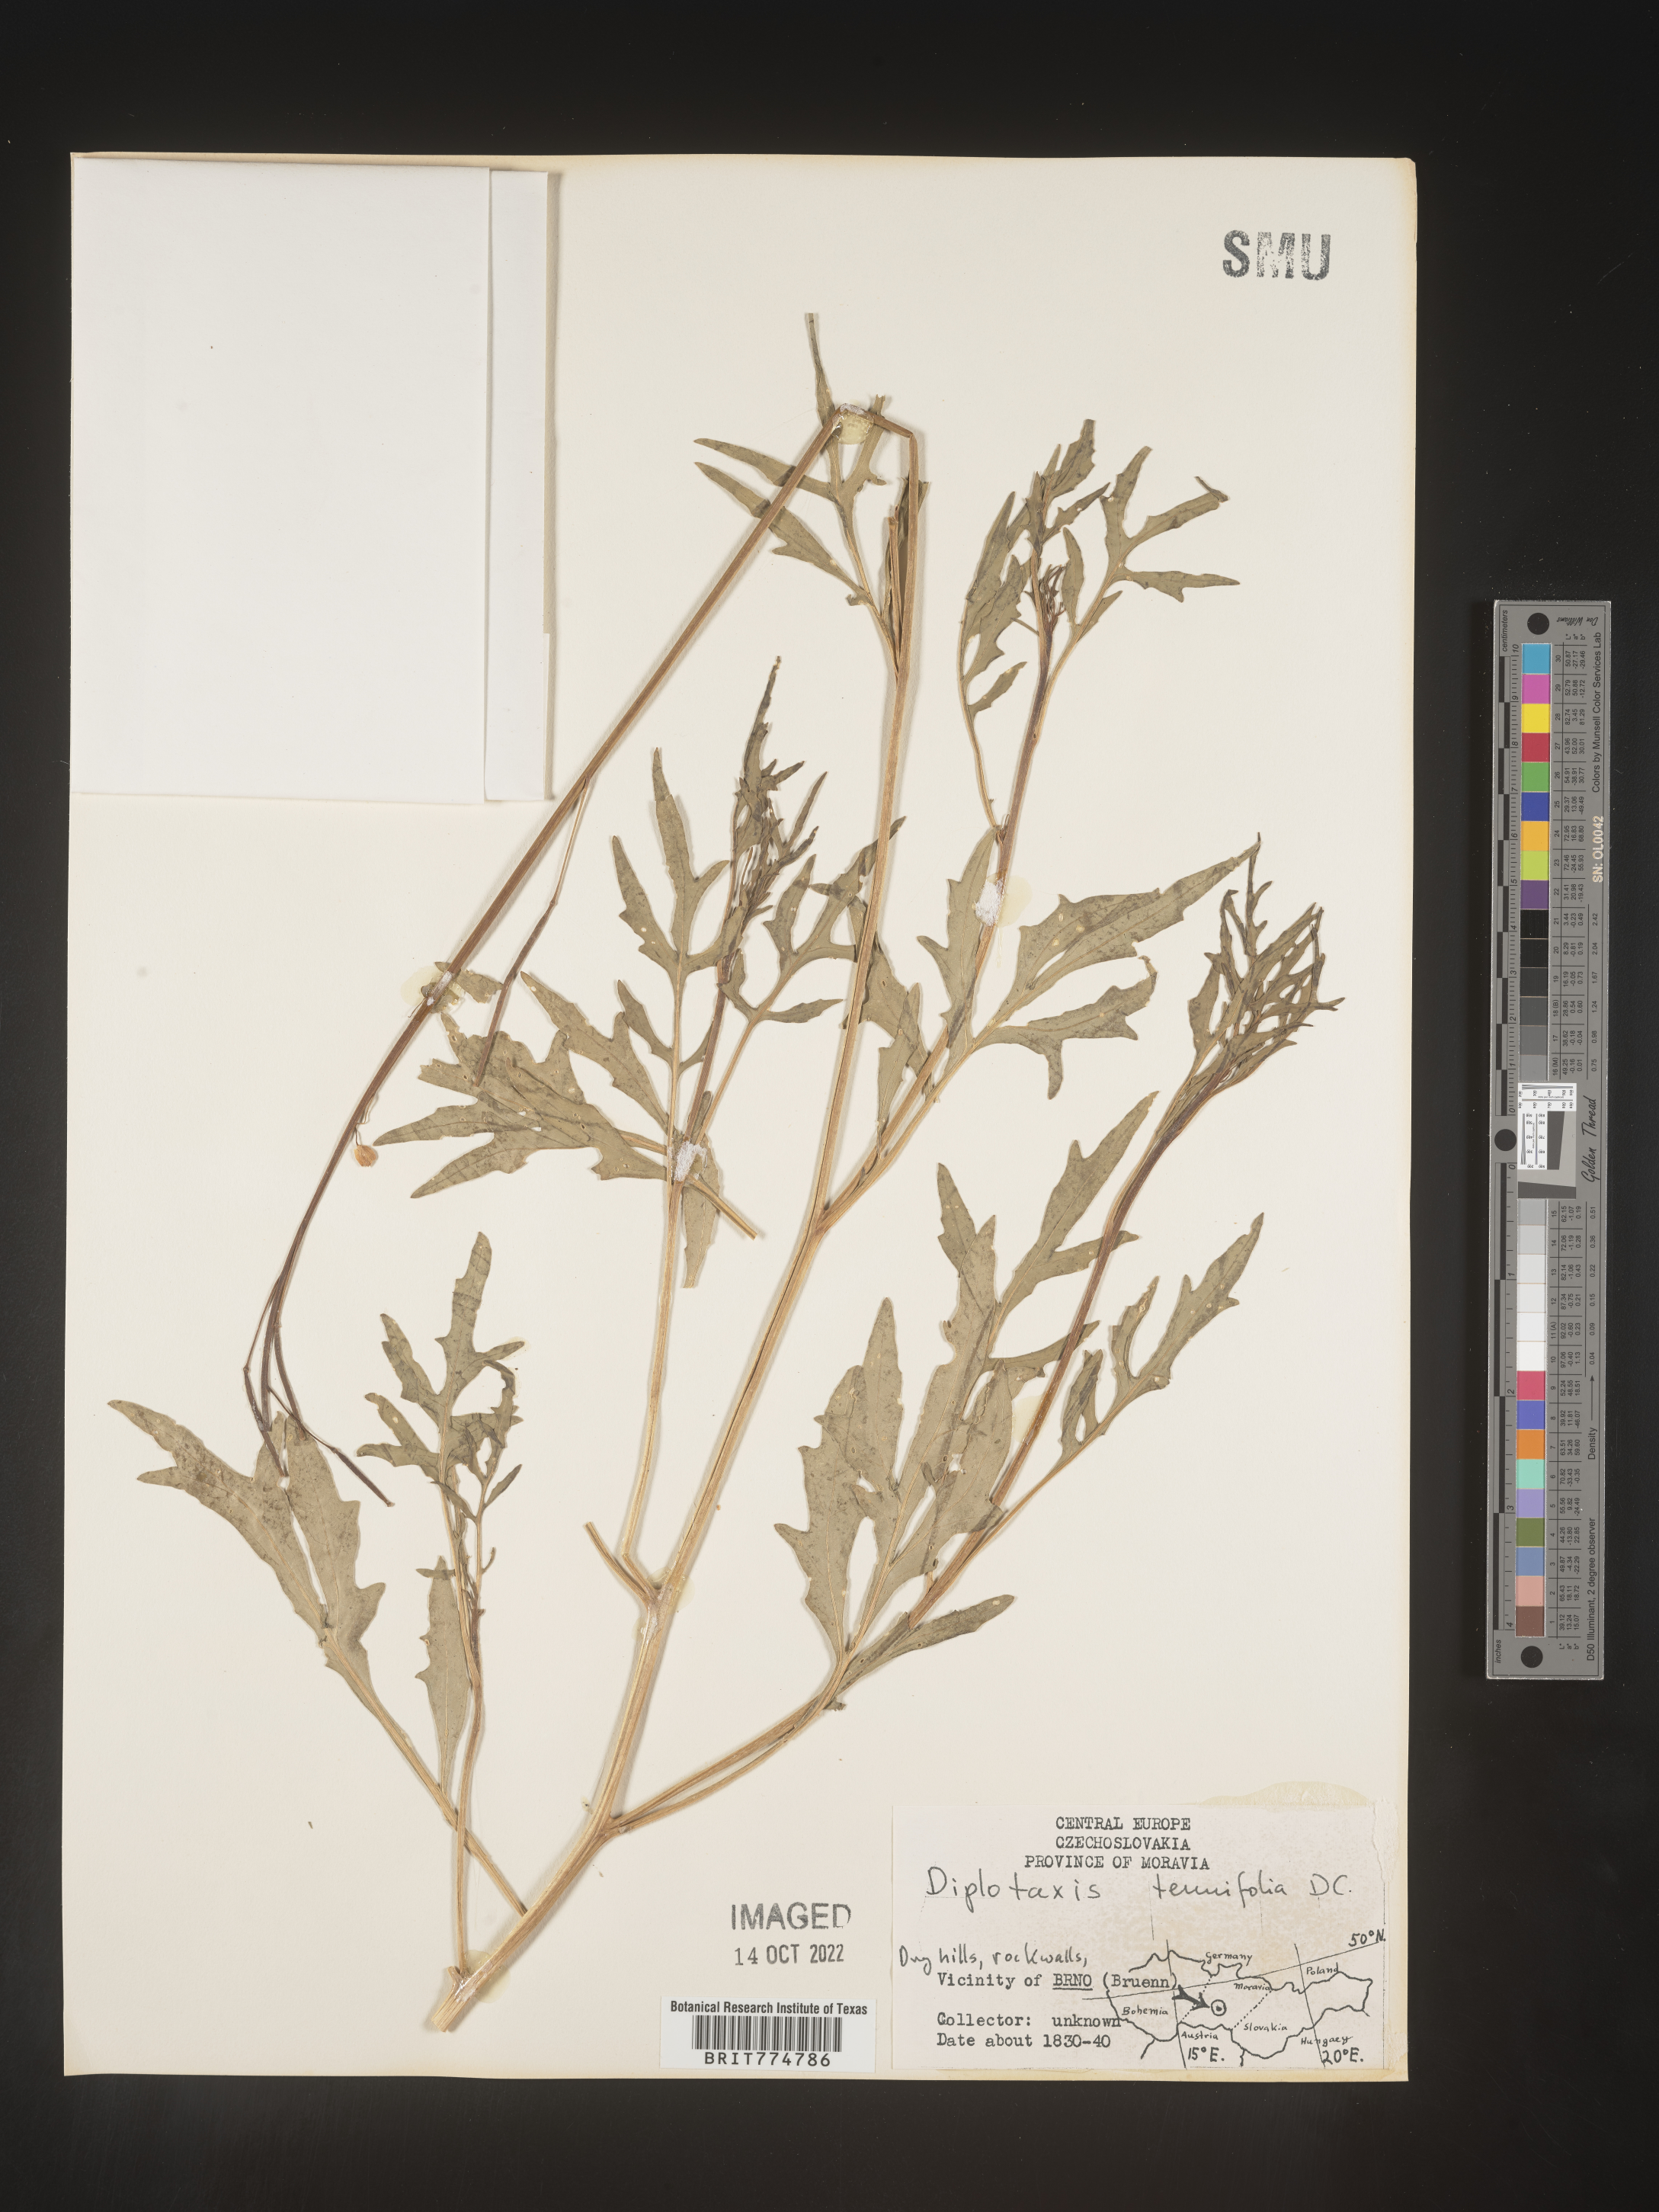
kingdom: Plantae
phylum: Tracheophyta
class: Magnoliopsida
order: Brassicales
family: Brassicaceae
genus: Diplotaxis
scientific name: Diplotaxis
